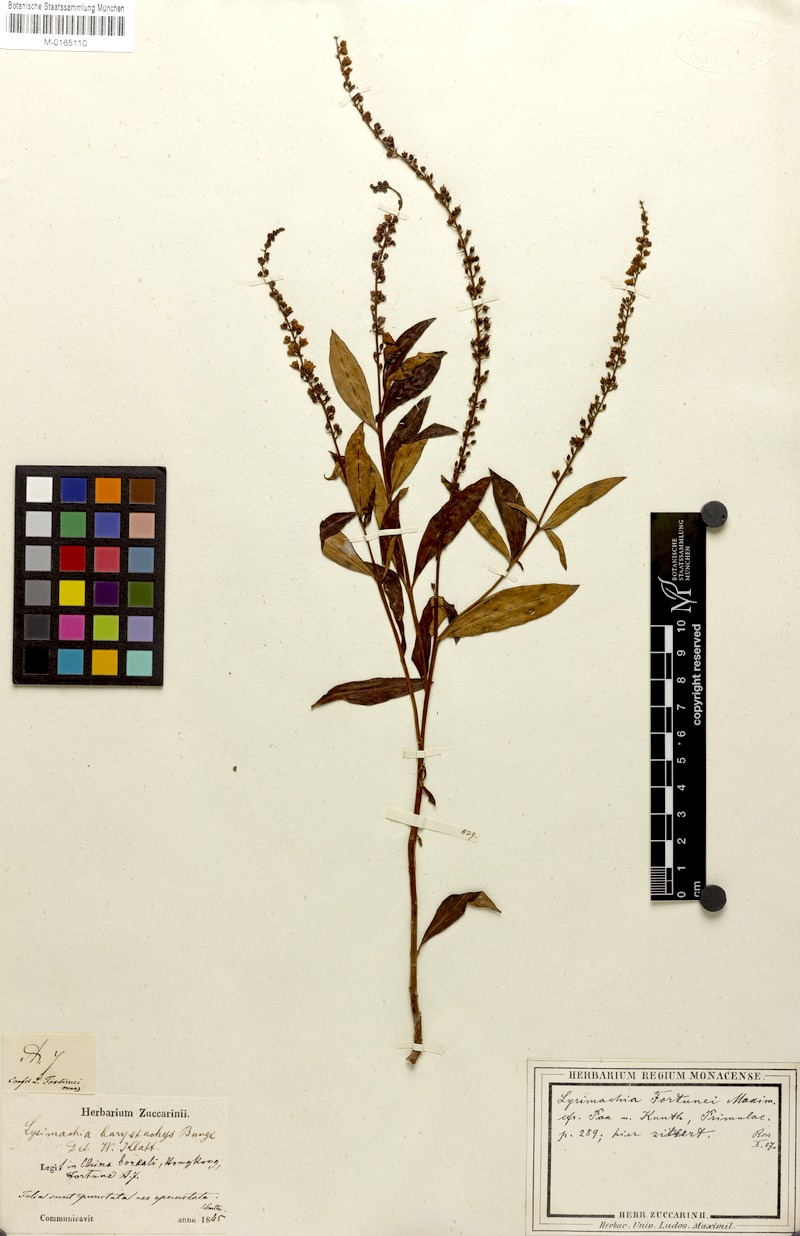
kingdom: Plantae
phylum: Tracheophyta
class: Magnoliopsida
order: Ericales
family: Primulaceae
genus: Lysimachia
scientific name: Lysimachia fortunei
